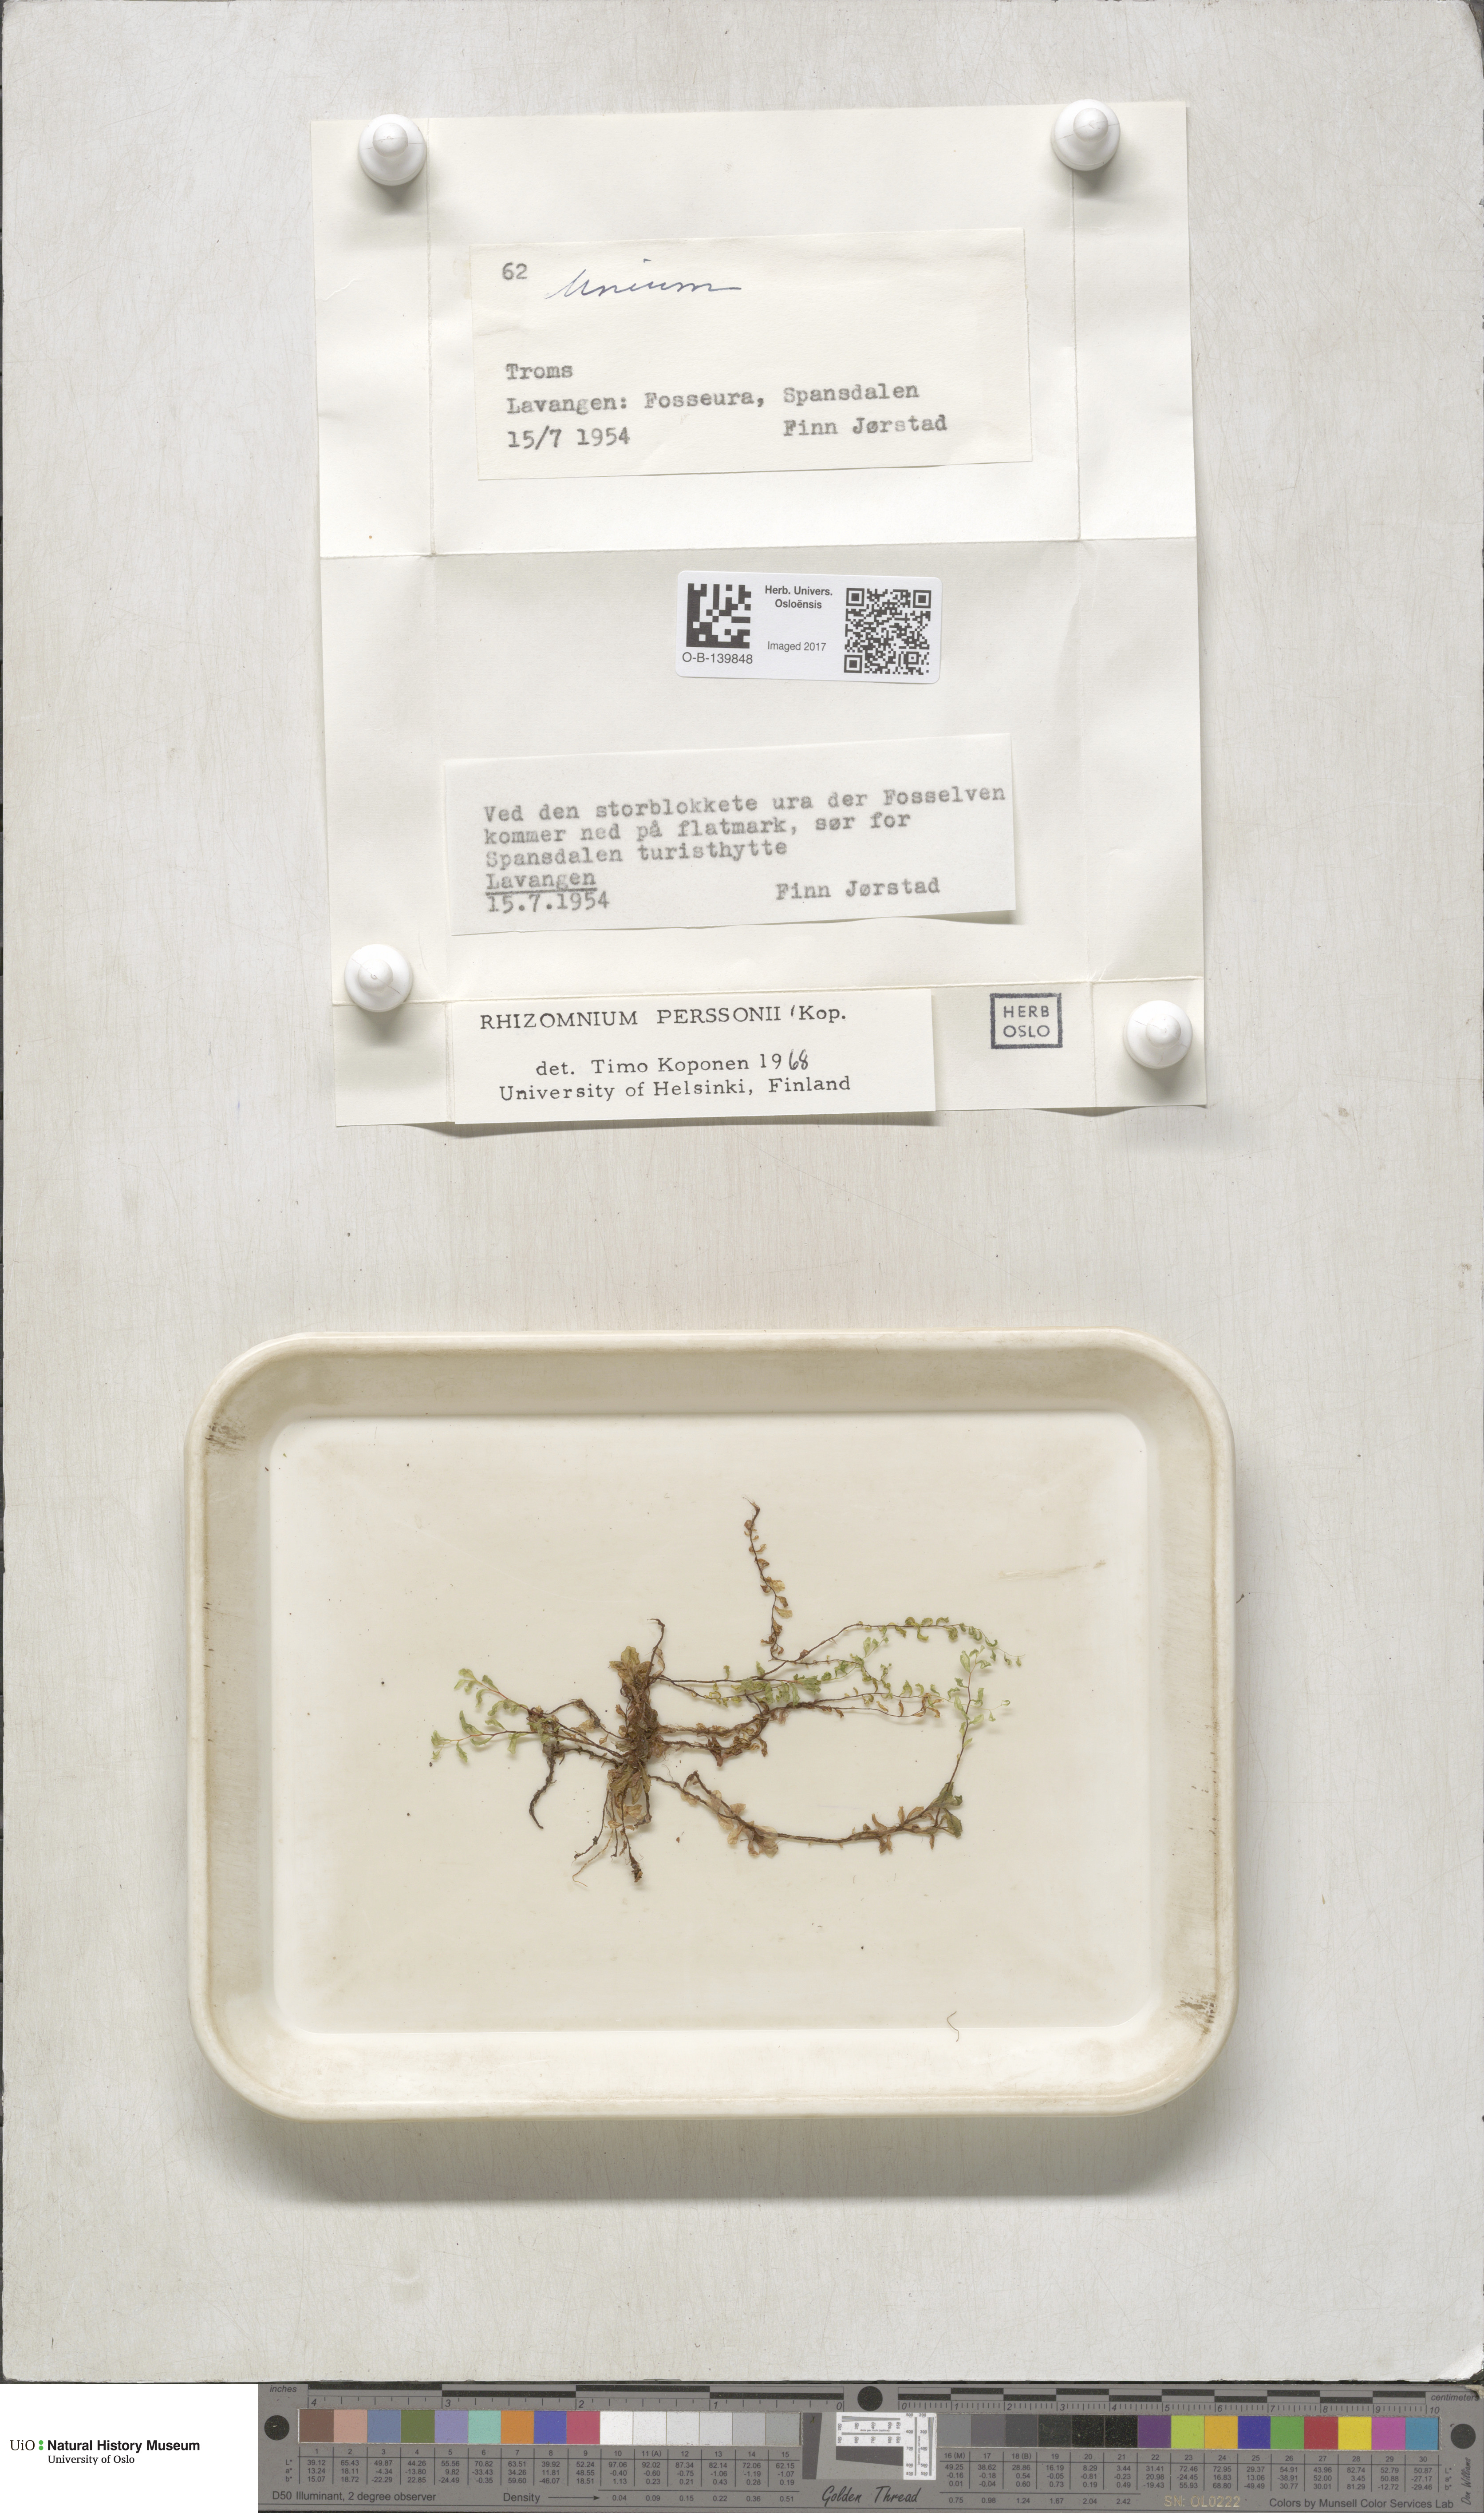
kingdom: Plantae
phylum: Bryophyta
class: Bryopsida
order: Bryales
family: Mniaceae
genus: Rhizomnium
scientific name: Rhizomnium magnifolium
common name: Large-leaved leafy moss
